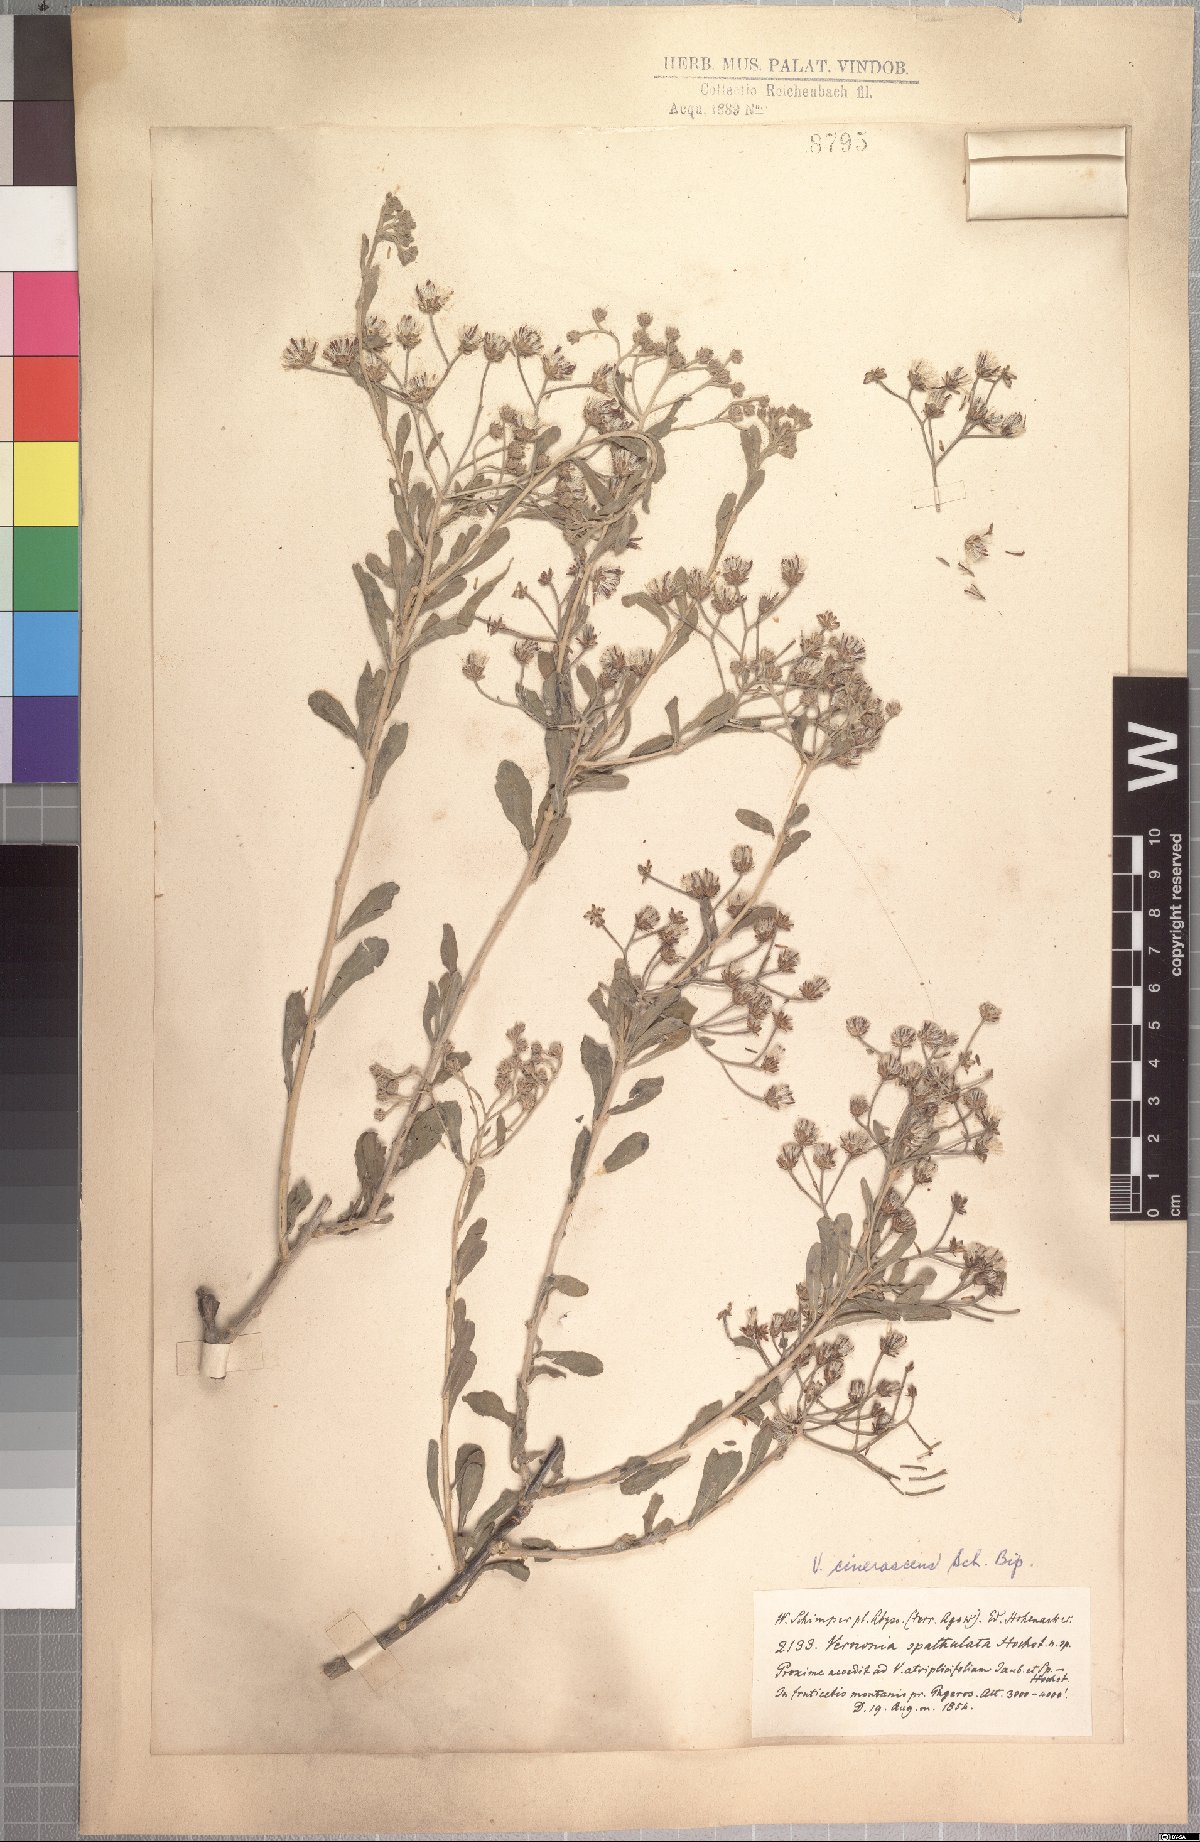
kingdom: Plantae
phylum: Tracheophyta
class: Magnoliopsida
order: Asterales
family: Asteraceae
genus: Orbivestus
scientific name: Orbivestus cinerascens
